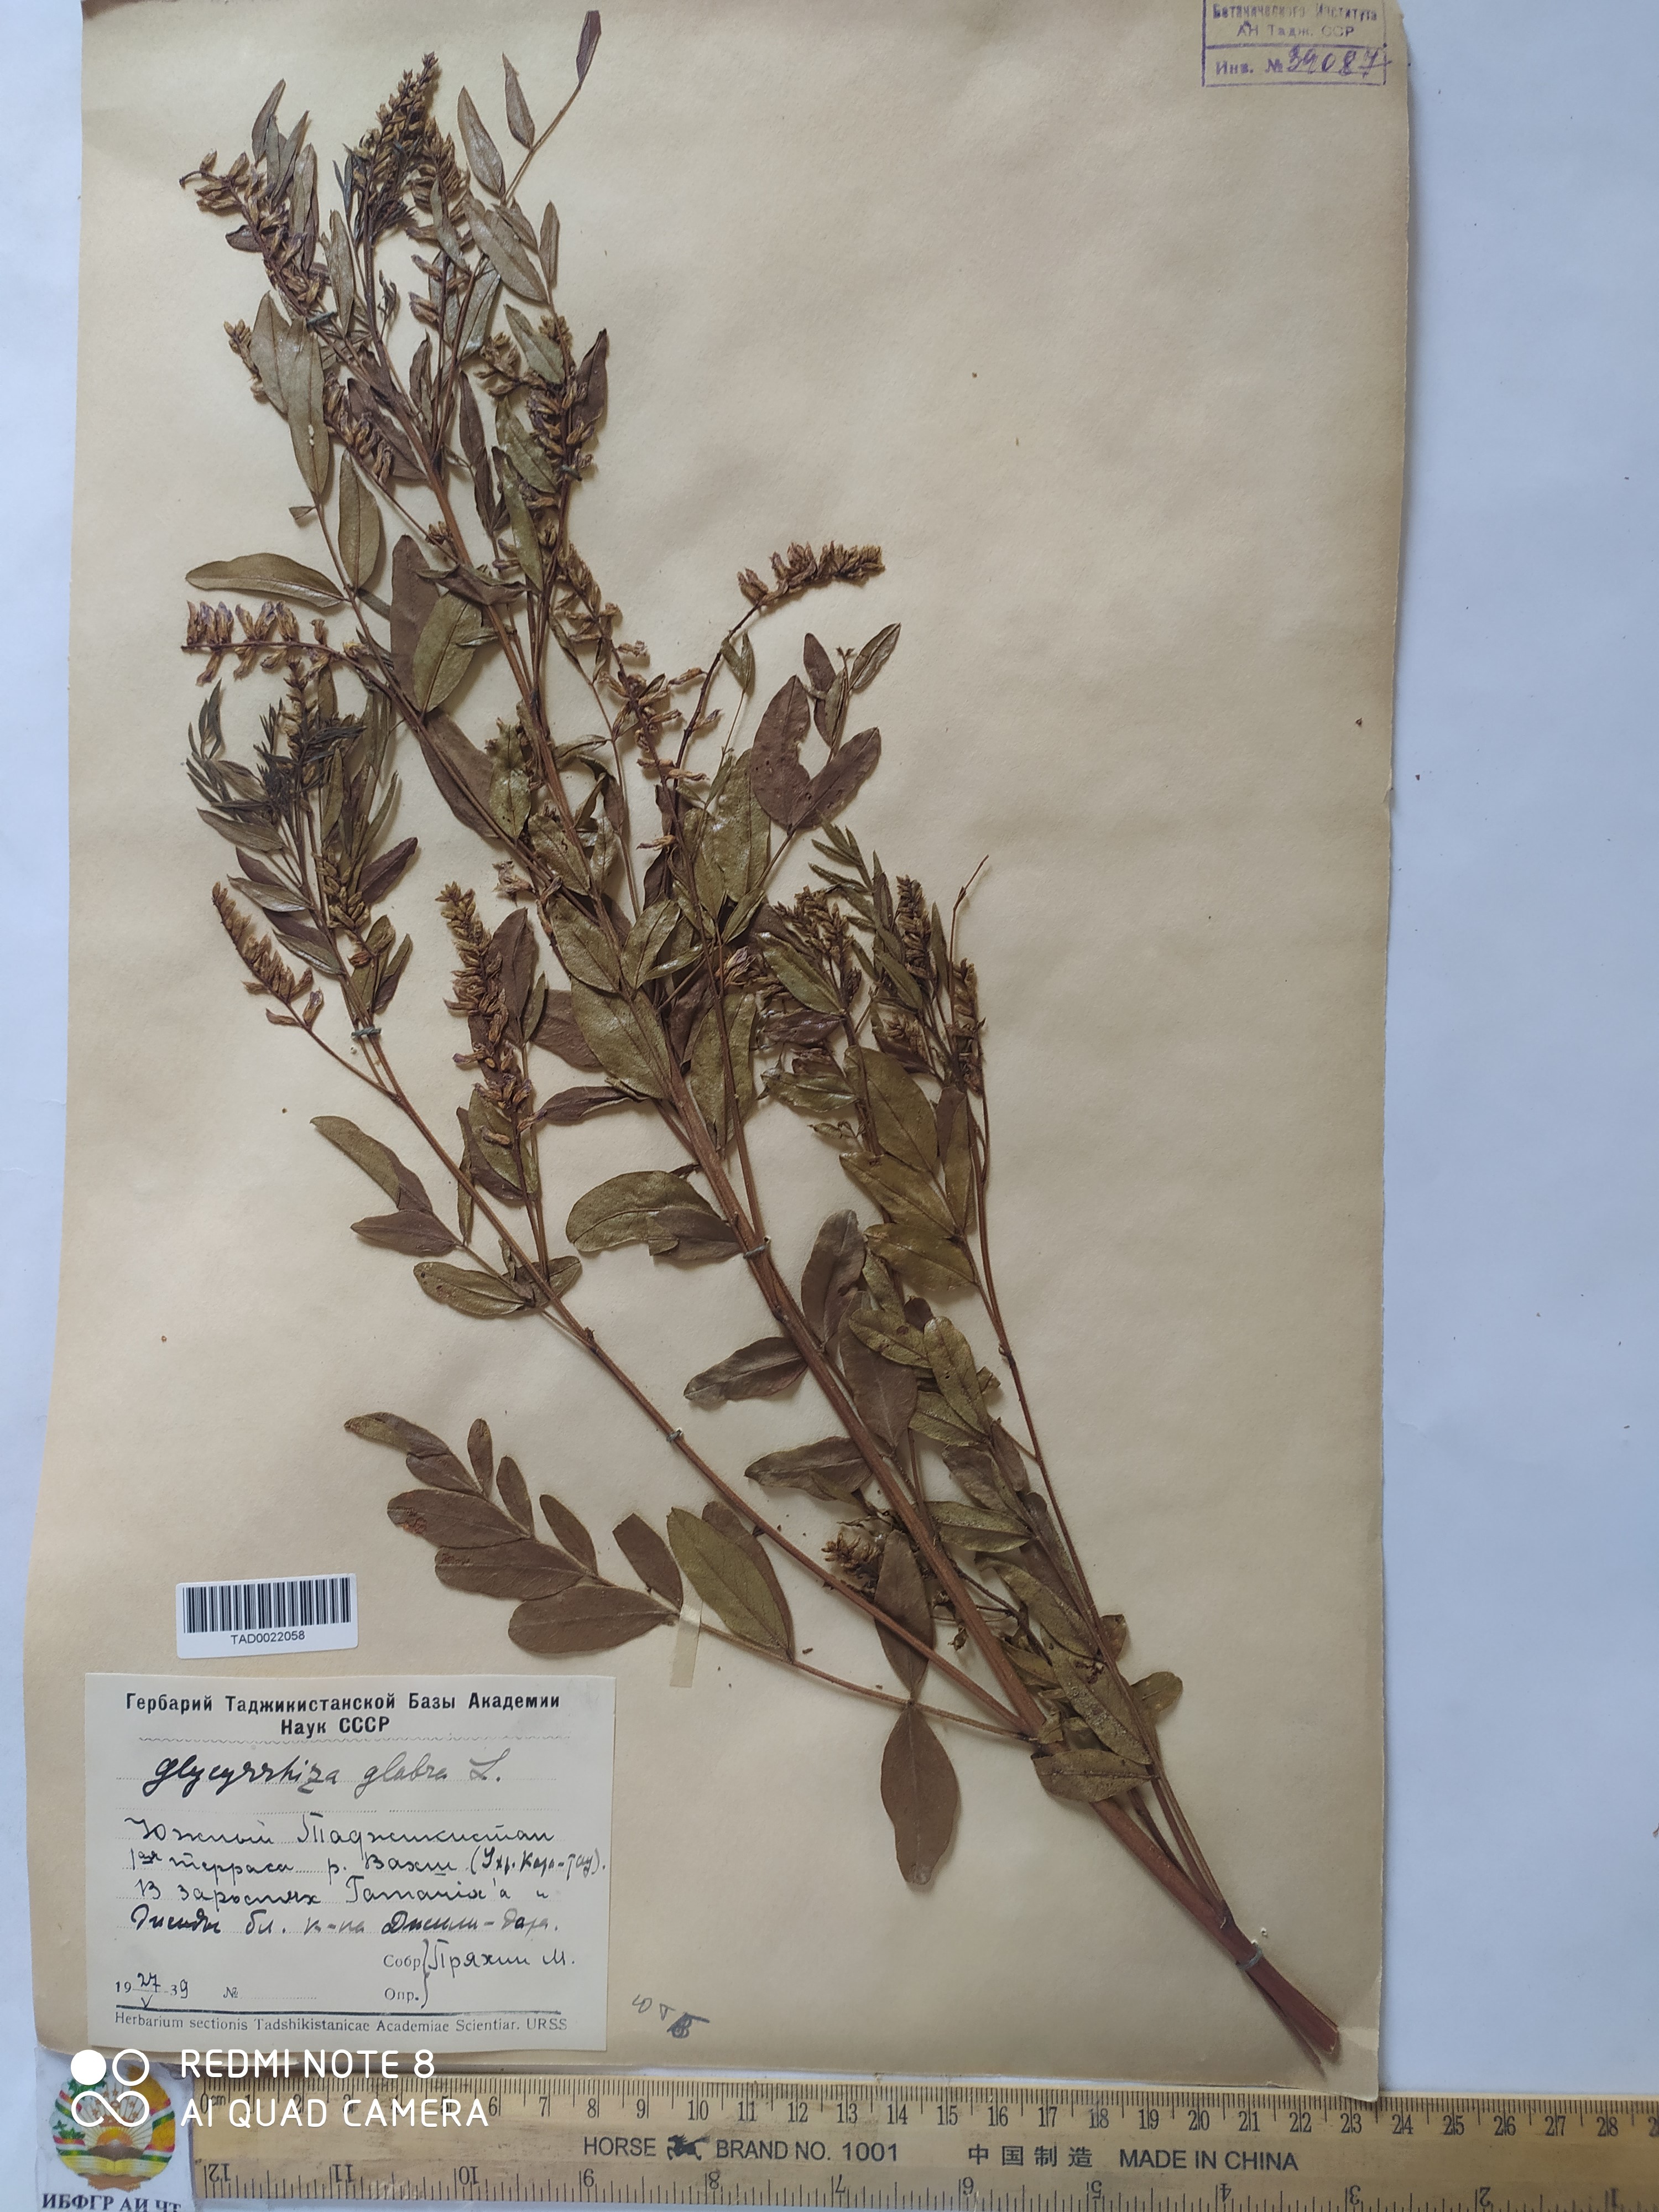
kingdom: Plantae
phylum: Tracheophyta
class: Magnoliopsida
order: Fabales
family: Fabaceae
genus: Glycyrrhiza
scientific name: Glycyrrhiza glabra
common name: Liquorice
